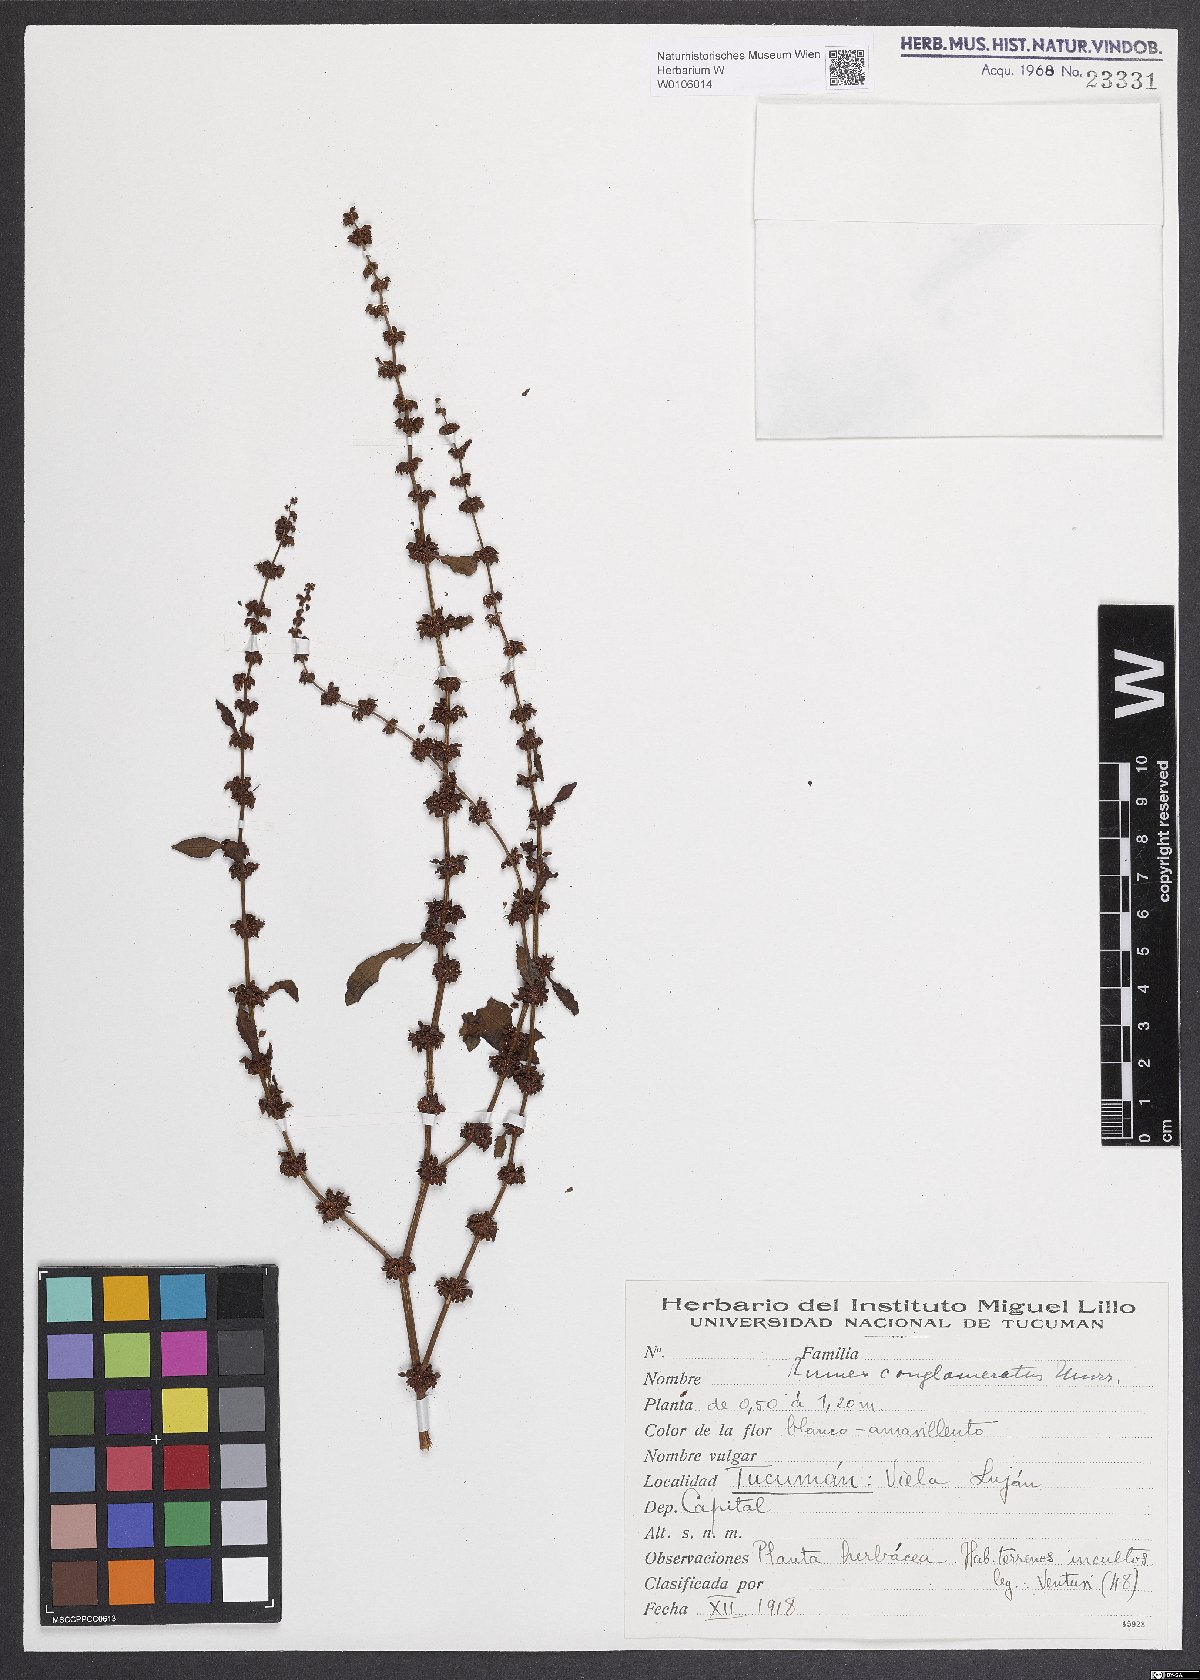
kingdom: Plantae
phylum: Tracheophyta
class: Magnoliopsida
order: Caryophyllales
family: Polygonaceae
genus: Rumex
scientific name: Rumex conglomeratus
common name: Clustered dock
